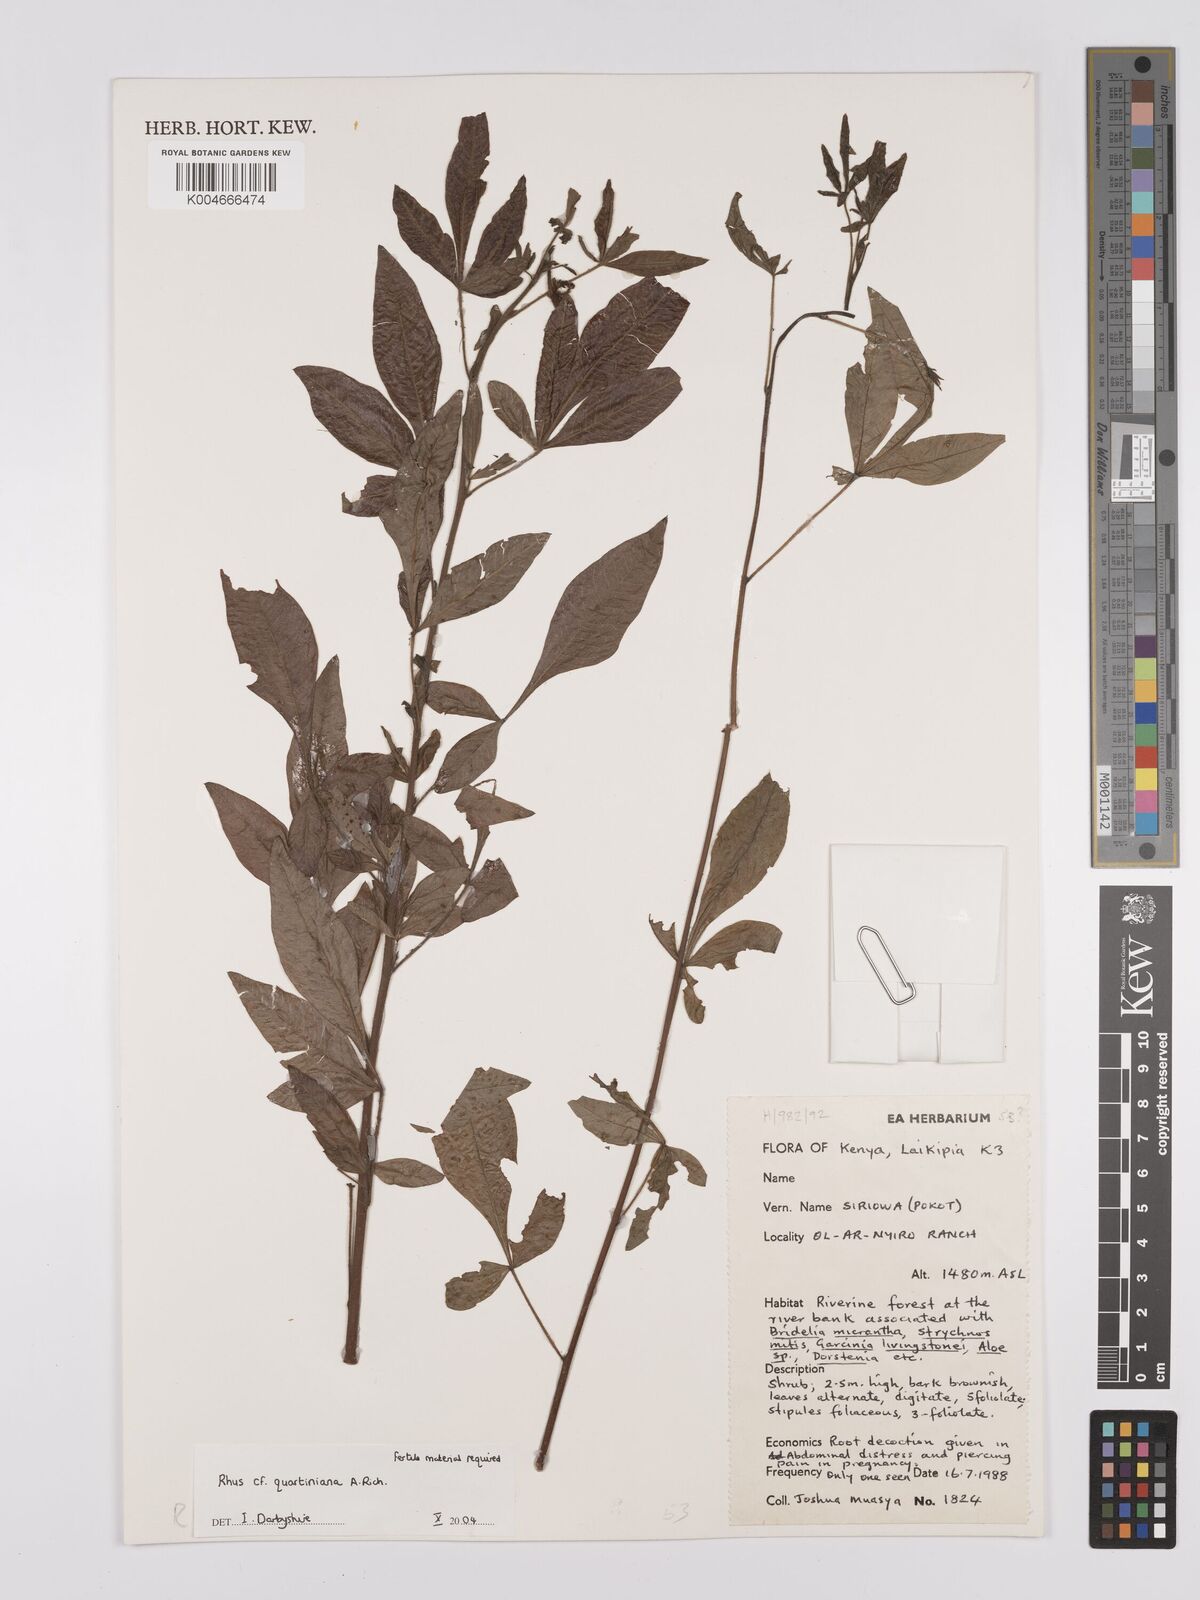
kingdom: Plantae
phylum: Tracheophyta
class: Magnoliopsida
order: Sapindales
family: Anacardiaceae
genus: Searsia
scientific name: Searsia quartiniana
